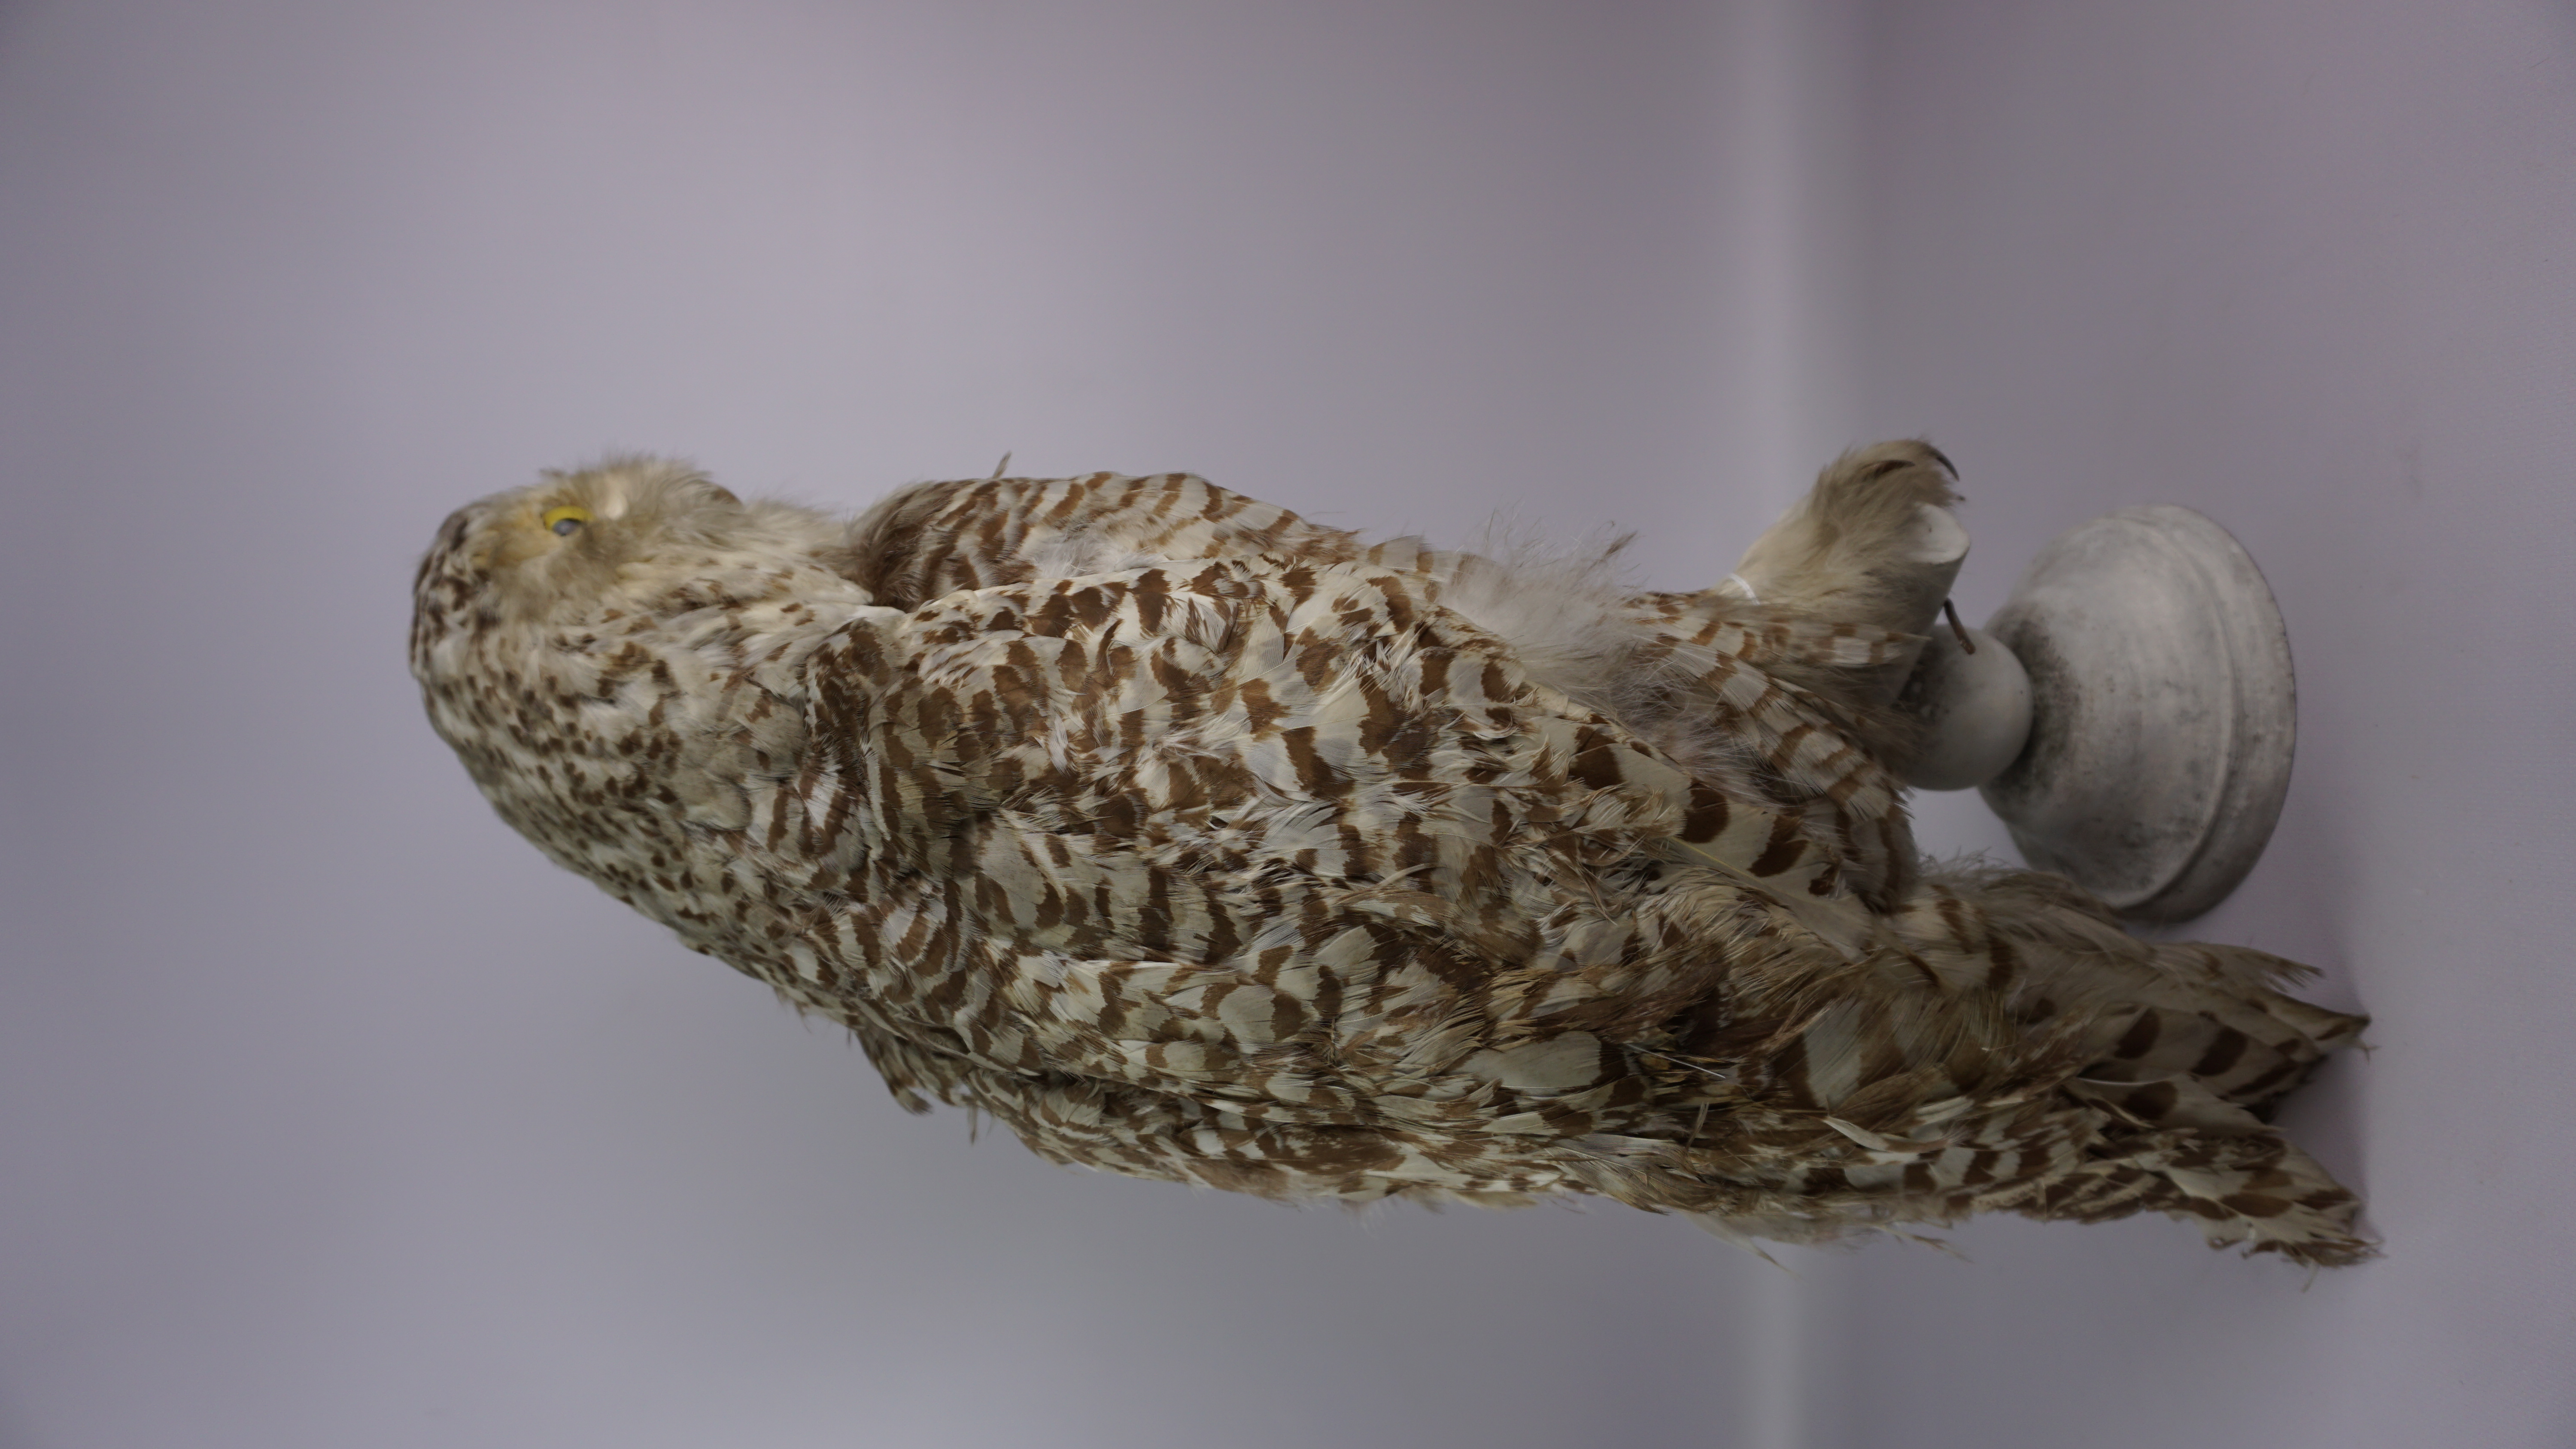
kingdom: Animalia
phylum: Chordata
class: Aves
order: Strigiformes
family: Strigidae
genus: Bubo
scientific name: Bubo scandiacus
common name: Snowy owl
